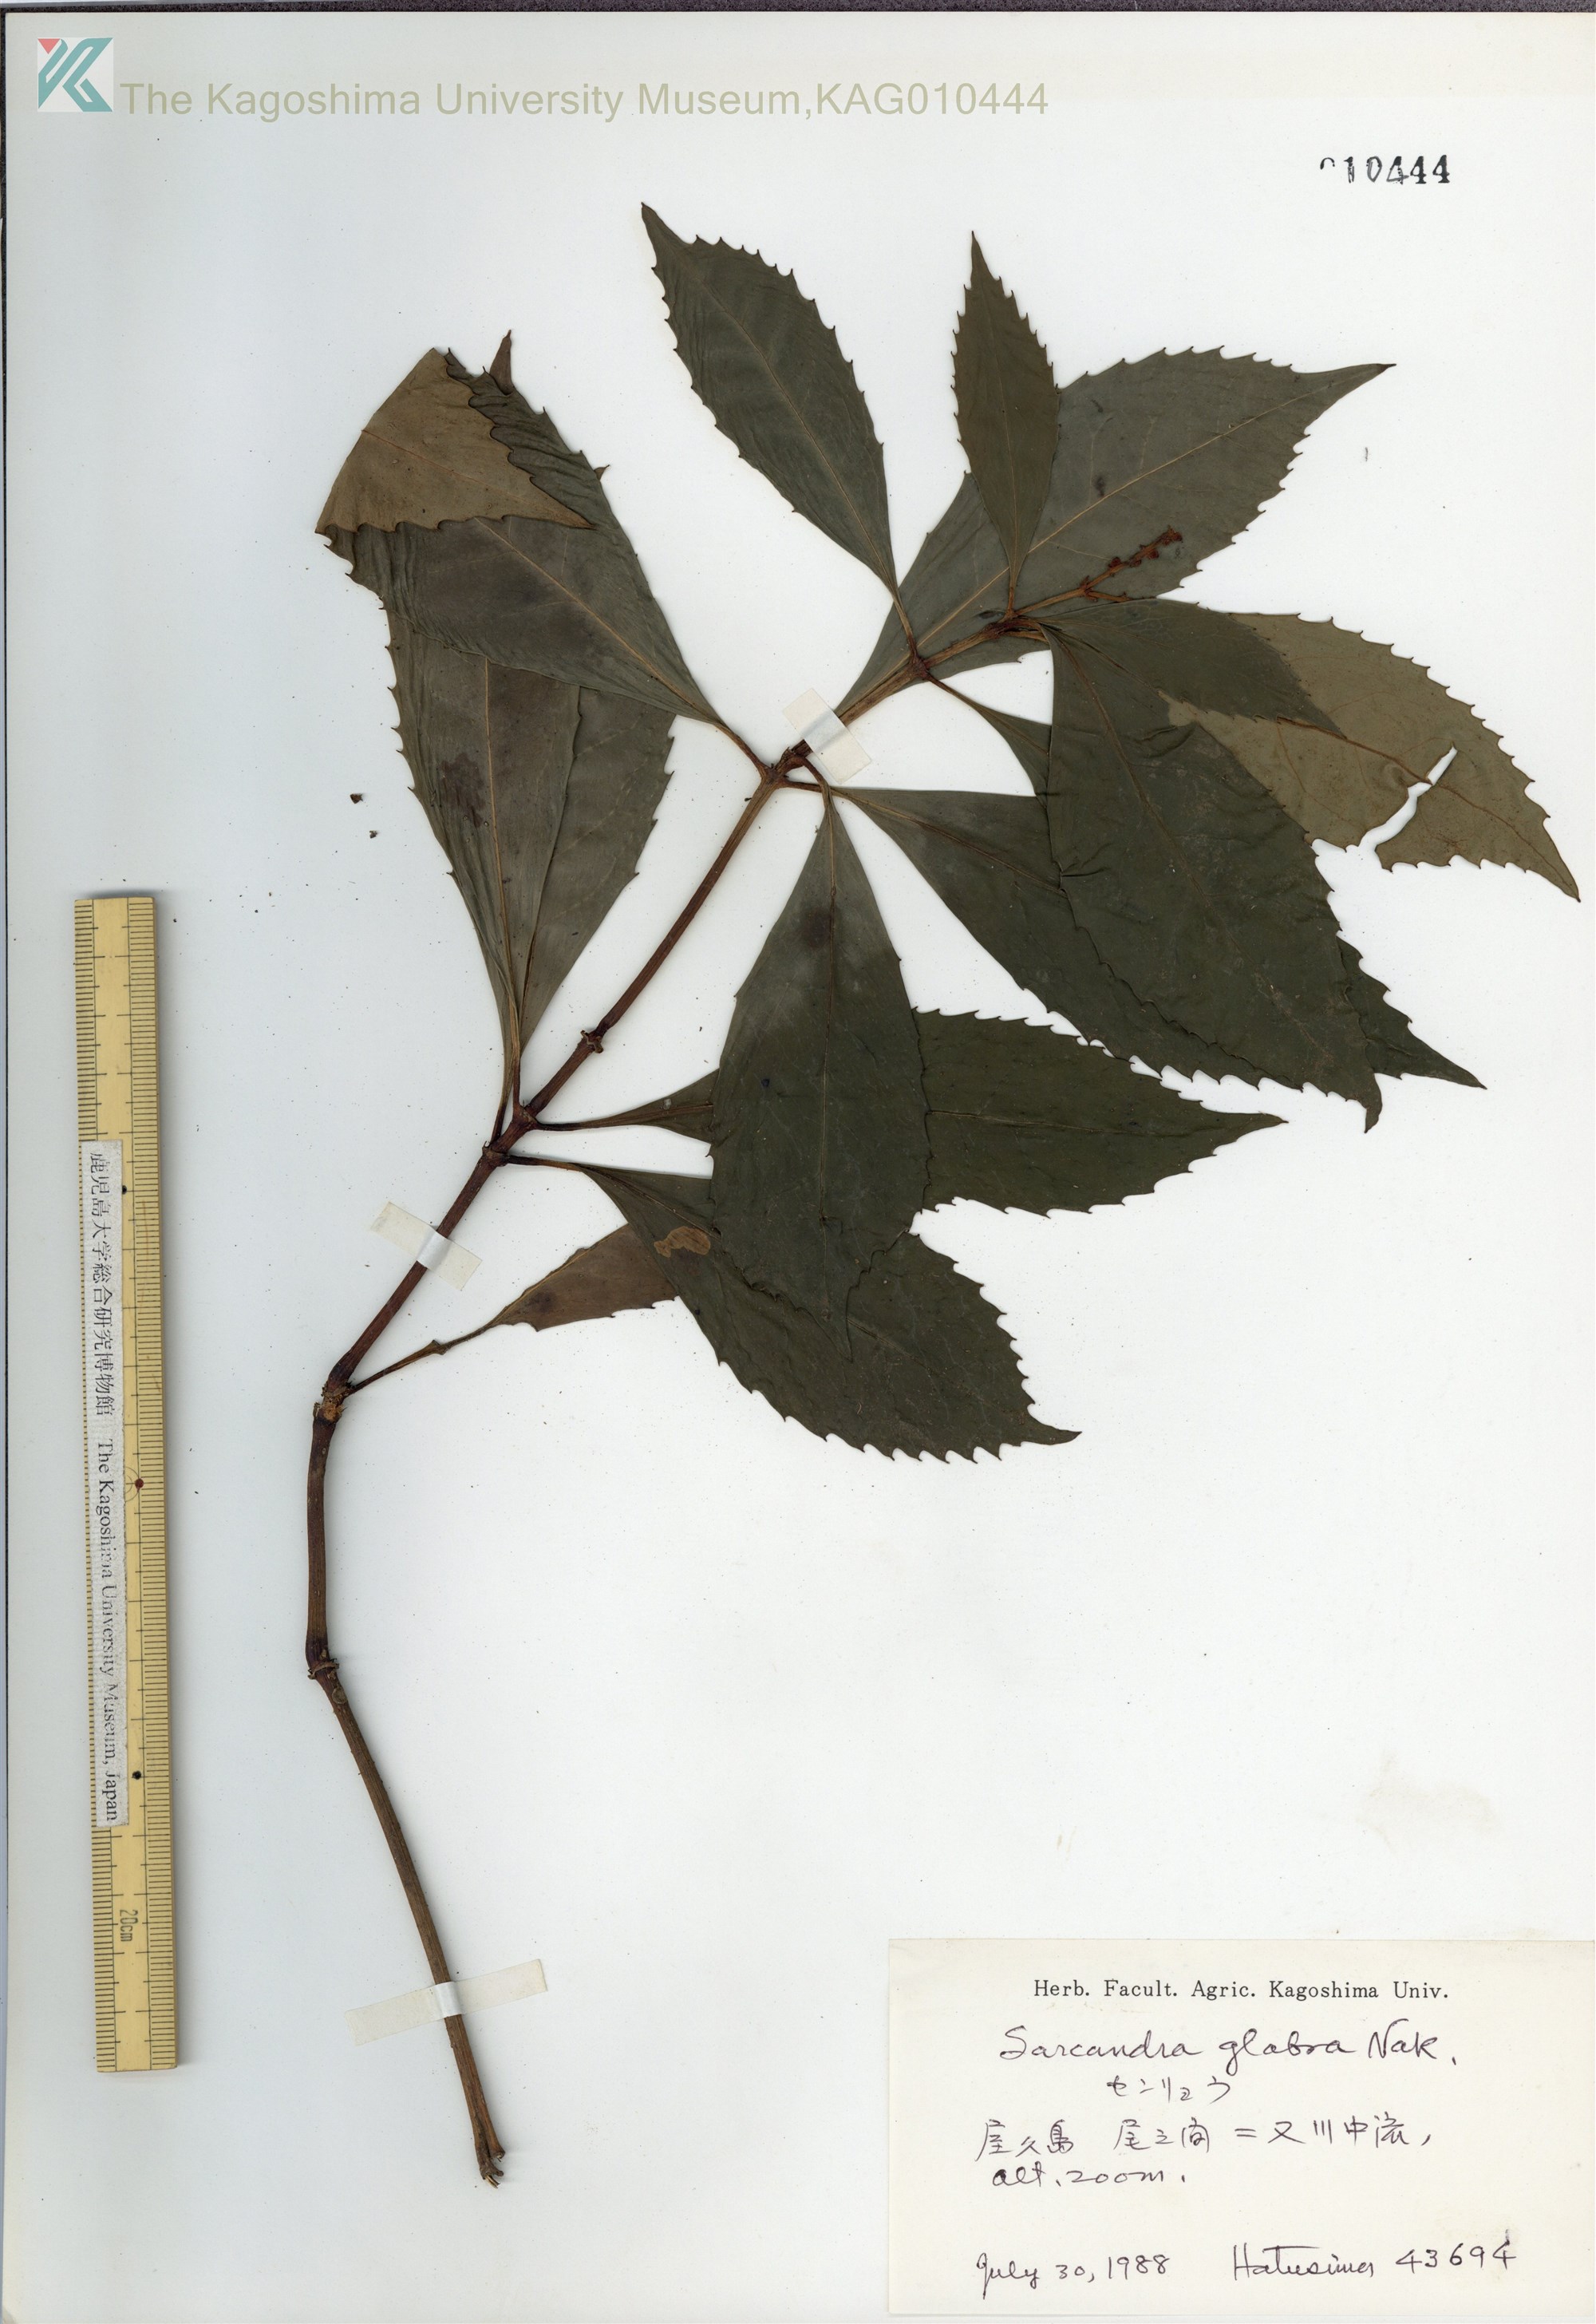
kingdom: Plantae
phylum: Tracheophyta
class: Magnoliopsida
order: Chloranthales
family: Chloranthaceae
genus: Sarcandra
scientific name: Sarcandra glabra
